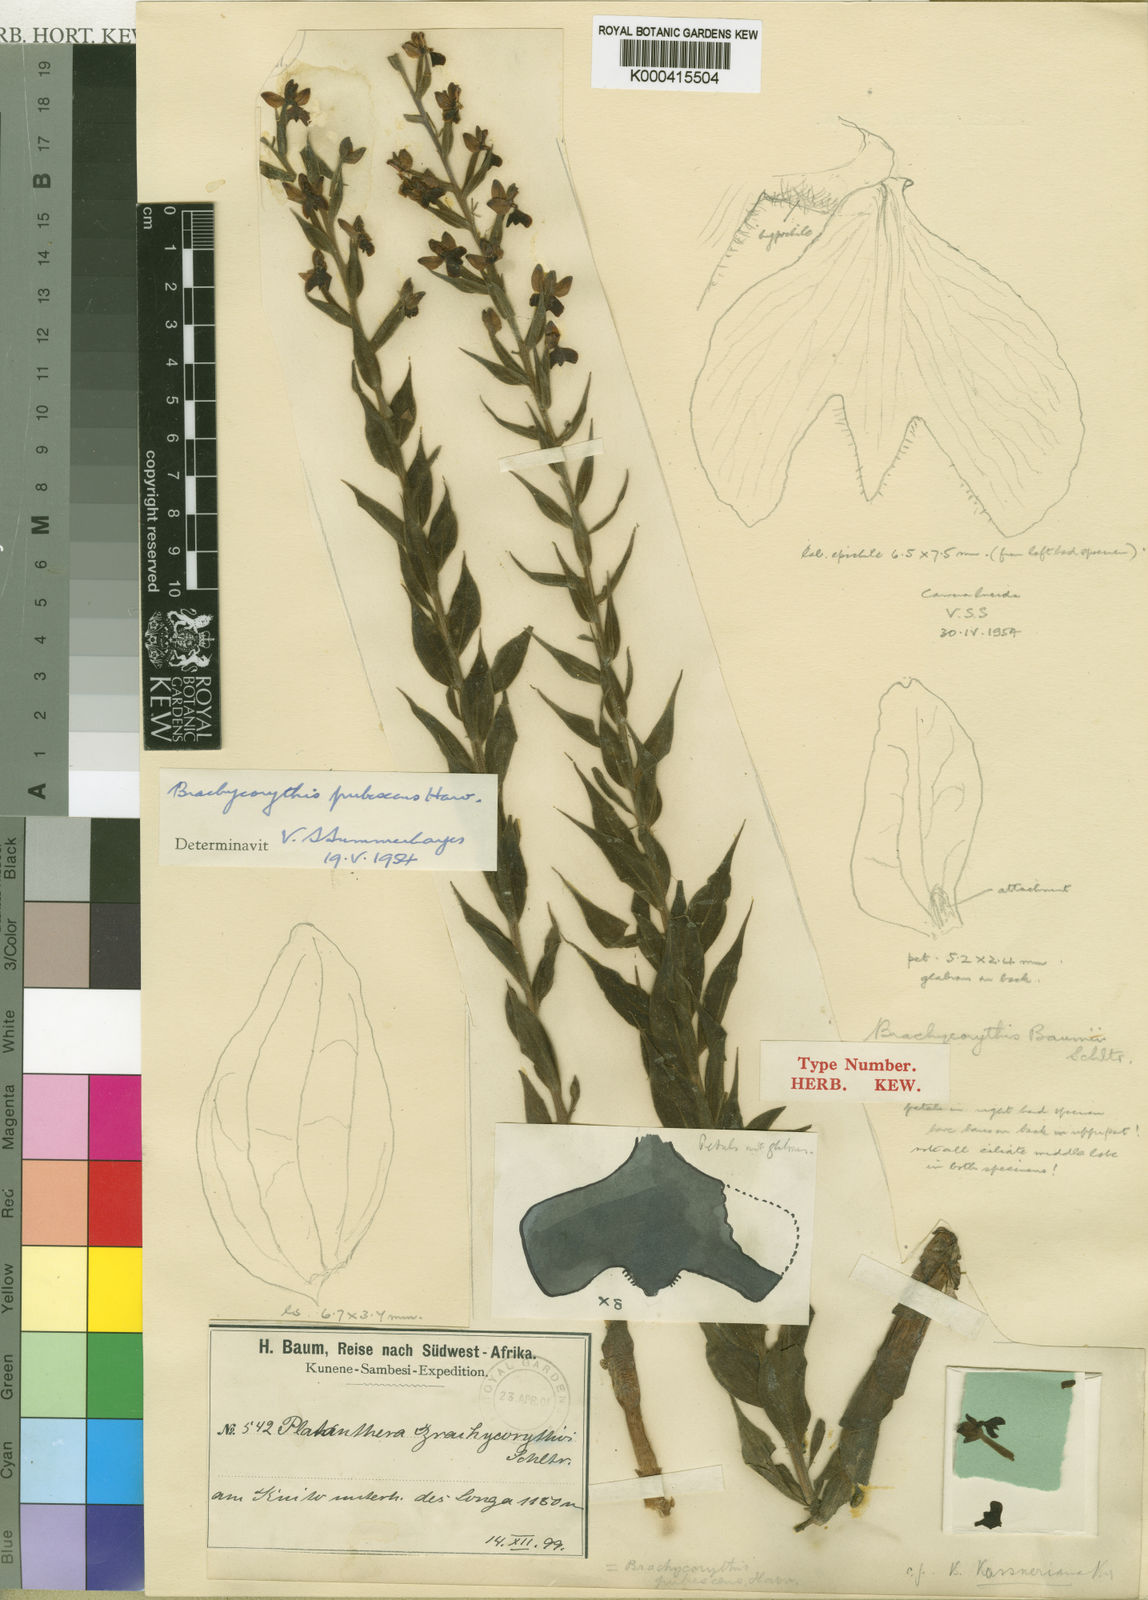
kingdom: Plantae
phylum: Tracheophyta
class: Liliopsida
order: Asparagales
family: Orchidaceae
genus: Brachycorythis
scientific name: Brachycorythis pubescens
